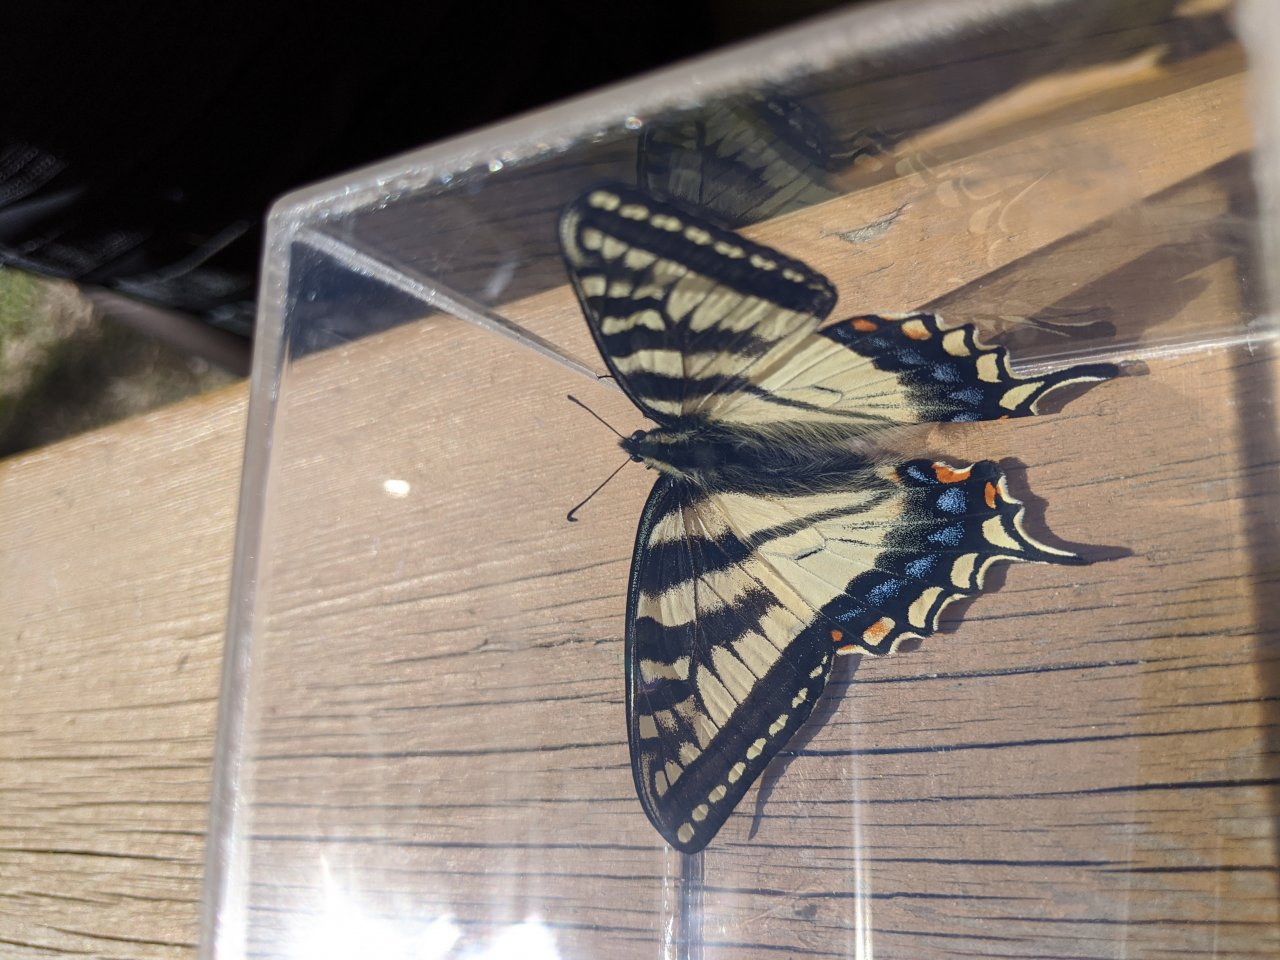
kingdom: Animalia
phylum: Arthropoda
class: Insecta
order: Lepidoptera
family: Papilionidae
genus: Pterourus
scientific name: Pterourus canadensis
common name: Canadian Tiger Swallowtail
